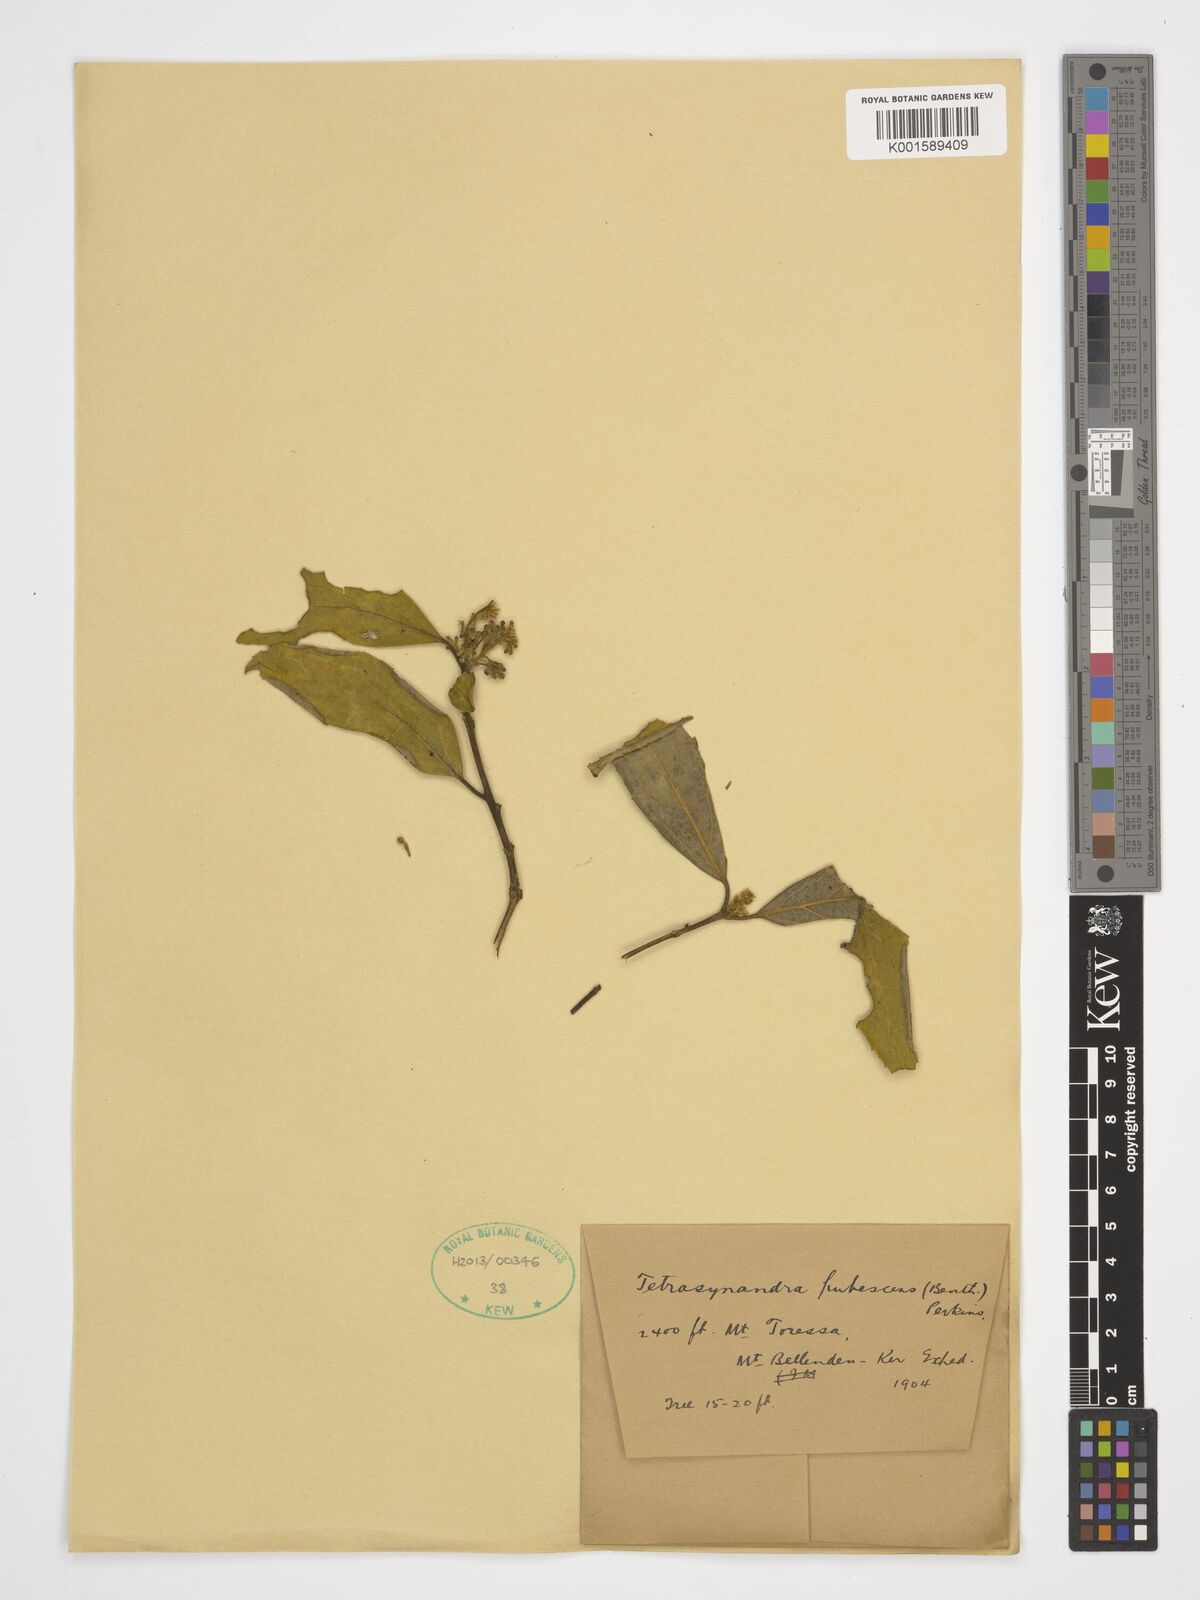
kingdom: Plantae
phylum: Tracheophyta
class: Magnoliopsida
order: Laurales
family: Monimiaceae
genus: Wilkiea
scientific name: Wilkiea pubescens
